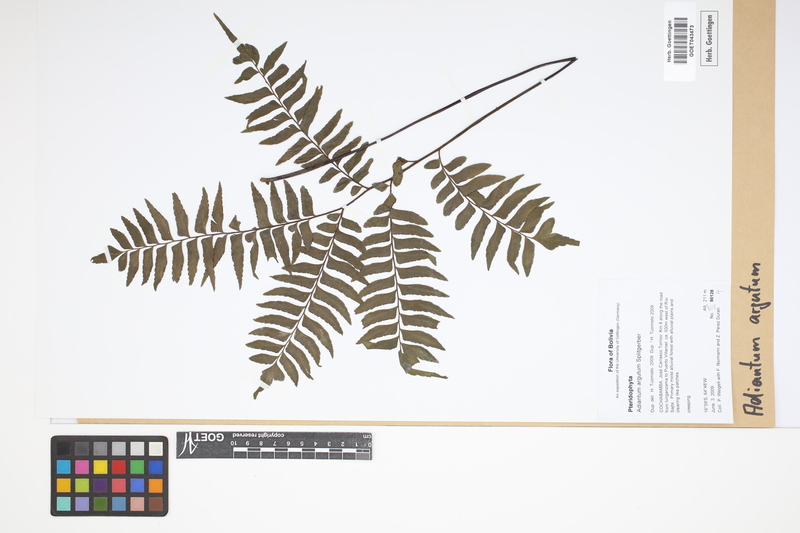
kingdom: Plantae
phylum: Tracheophyta
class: Polypodiopsida
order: Polypodiales
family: Pteridaceae
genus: Adiantum
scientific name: Adiantum argutum
